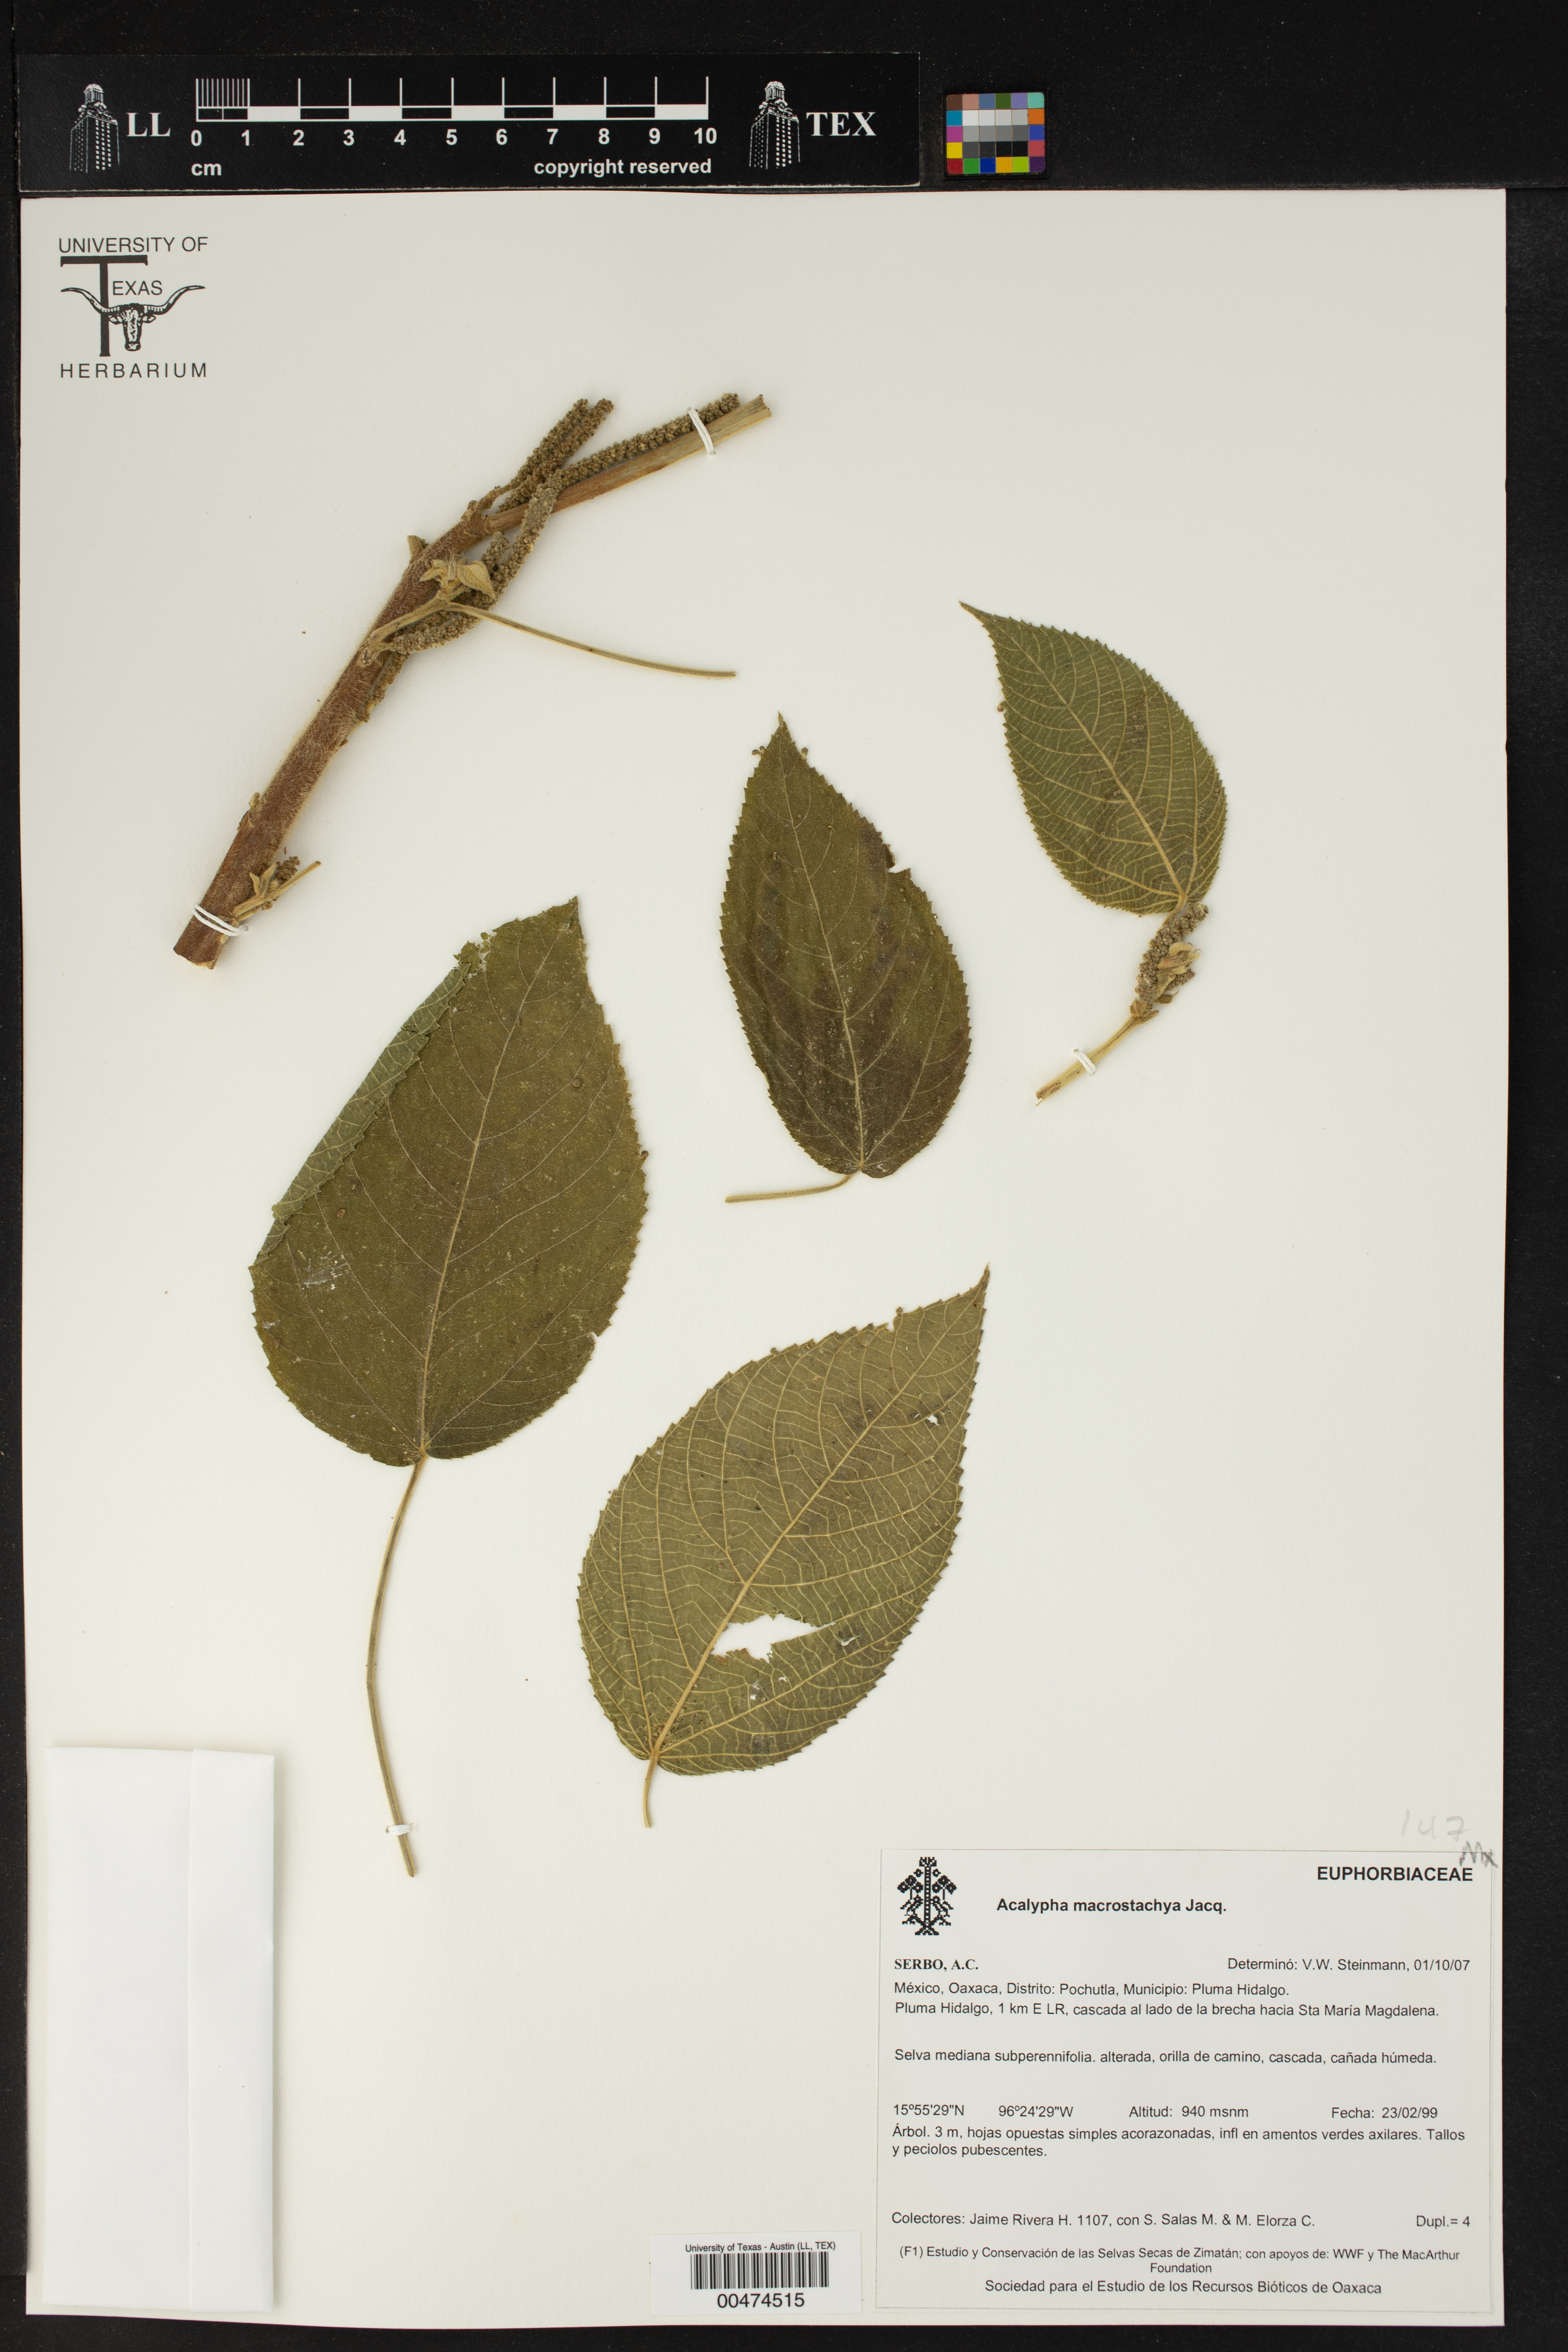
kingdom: Plantae
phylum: Tracheophyta
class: Magnoliopsida
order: Malpighiales
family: Euphorbiaceae
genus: Acalypha
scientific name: Acalypha macrostachya
